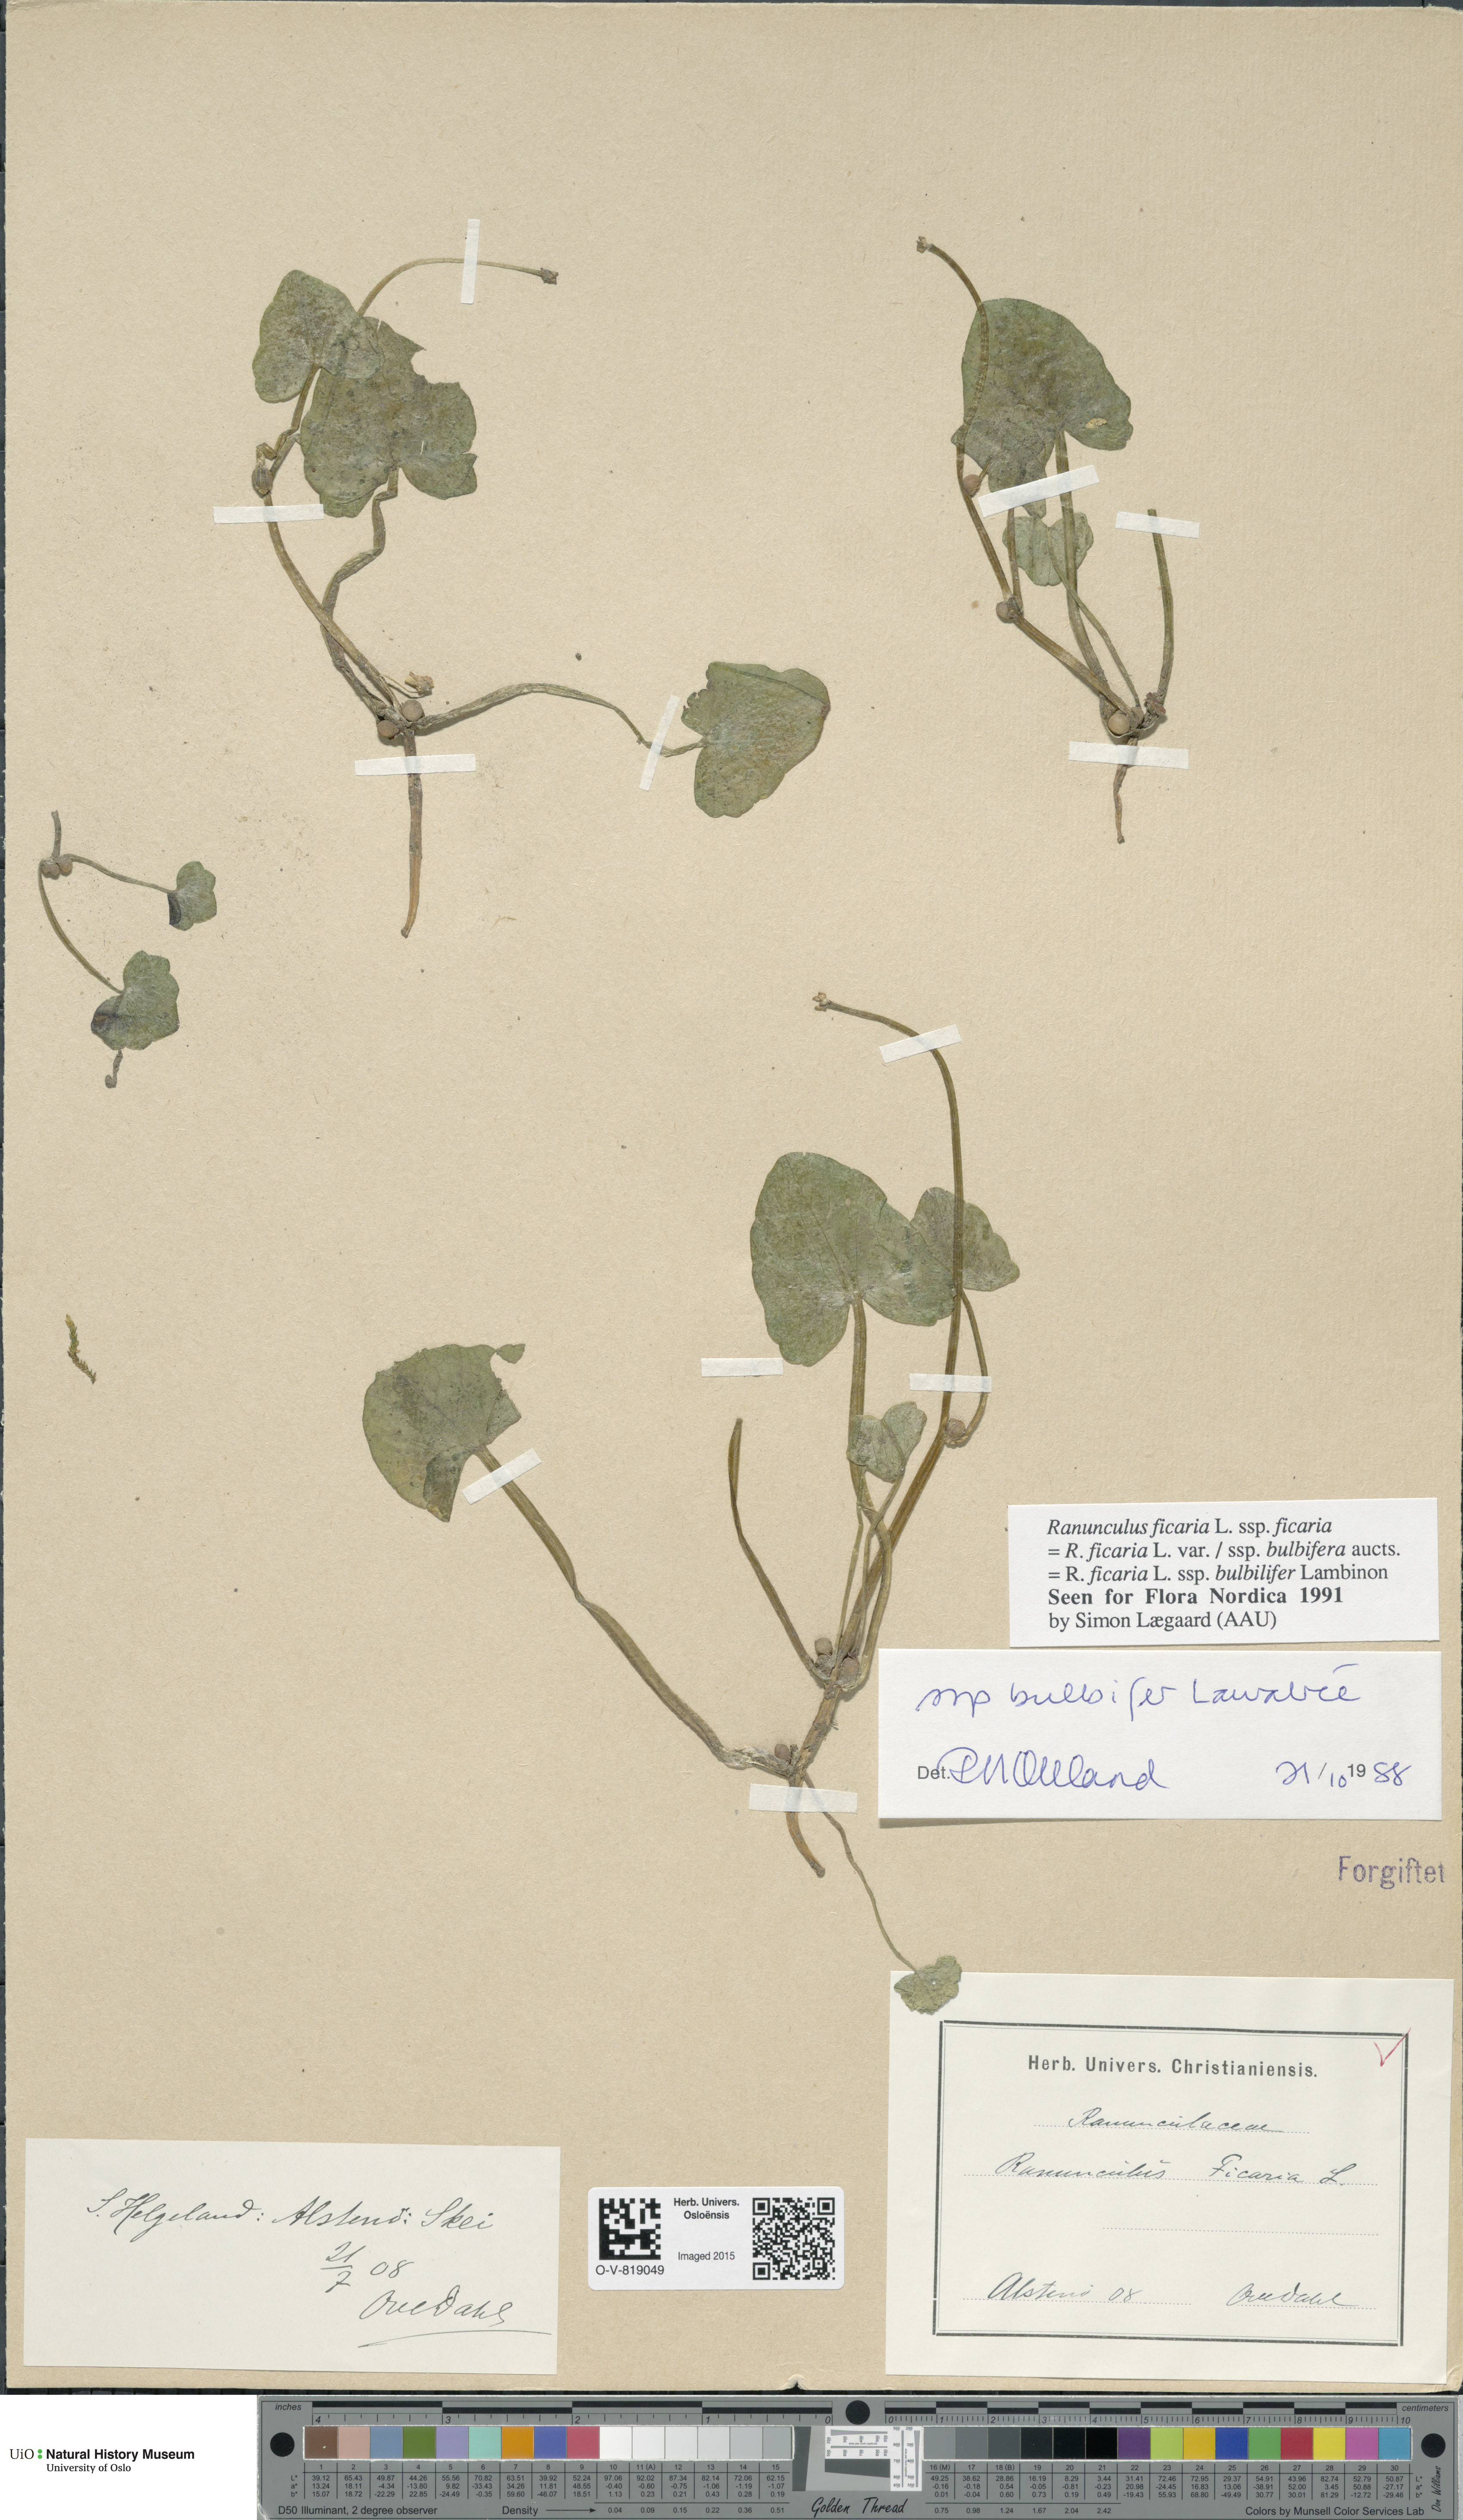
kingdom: Plantae
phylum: Tracheophyta
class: Magnoliopsida
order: Ranunculales
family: Ranunculaceae
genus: Ficaria
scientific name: Ficaria verna
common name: Lesser celandine
